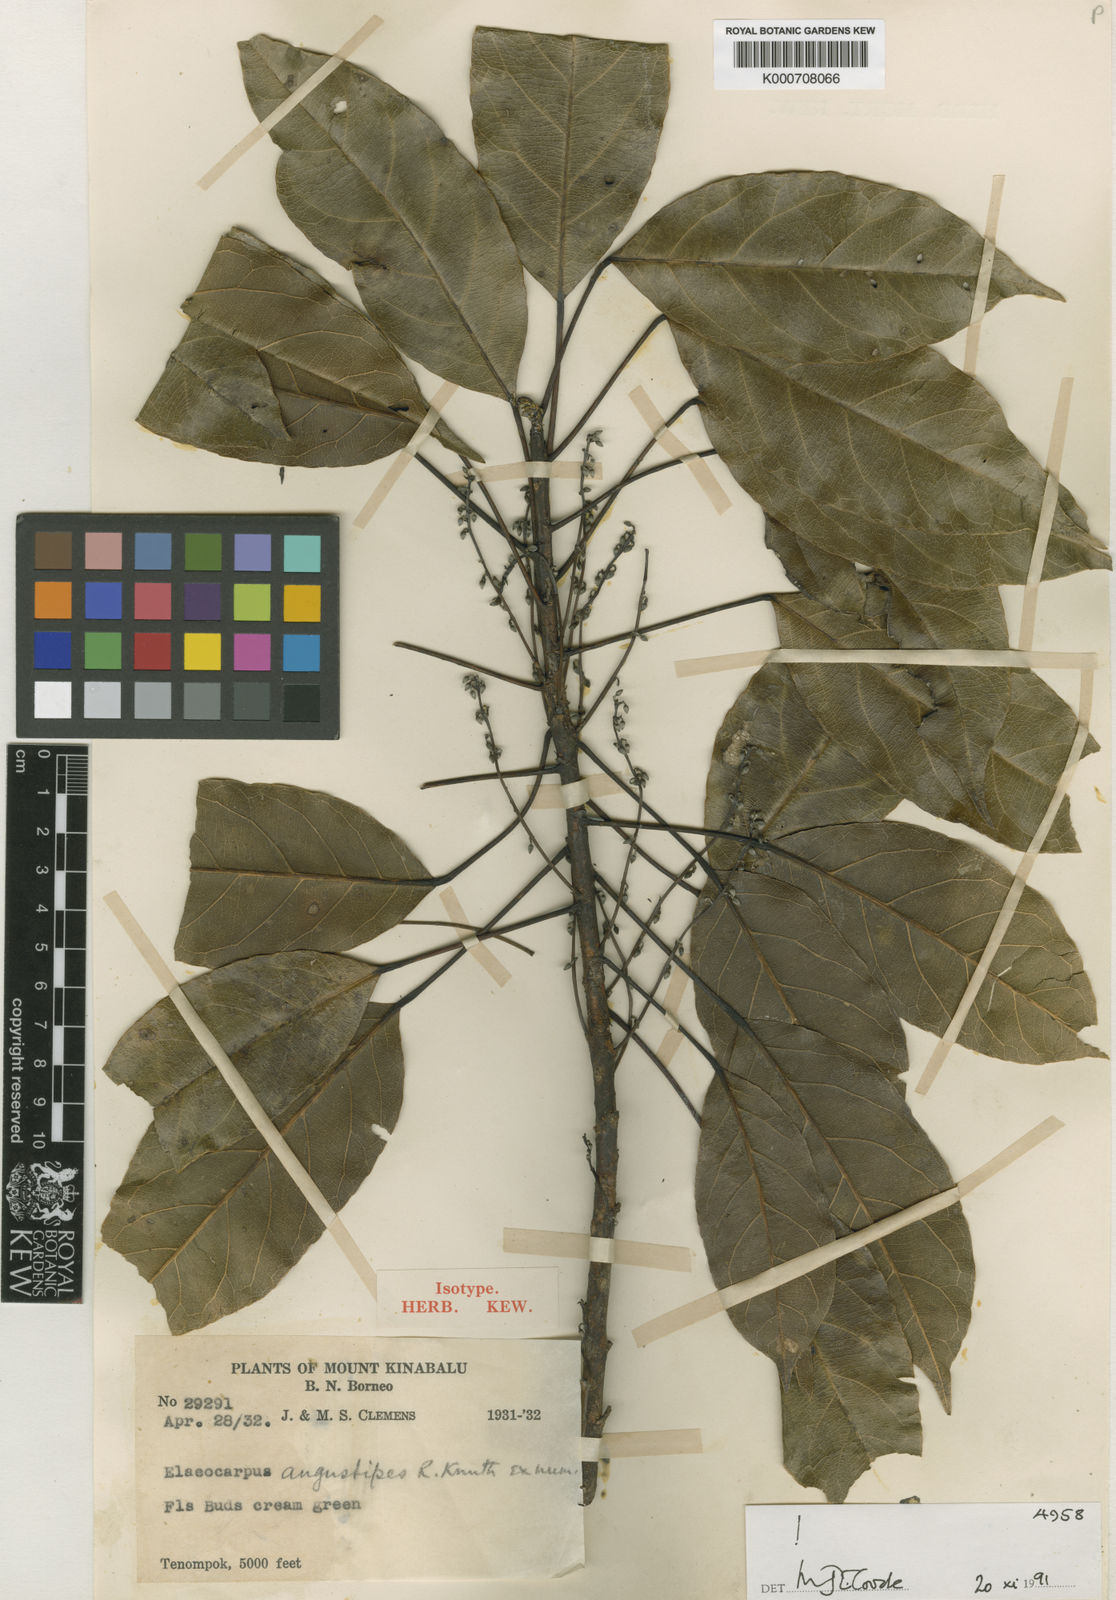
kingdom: Plantae
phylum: Tracheophyta
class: Magnoliopsida
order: Oxalidales
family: Elaeocarpaceae
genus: Elaeocarpus
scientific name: Elaeocarpus angustipes
